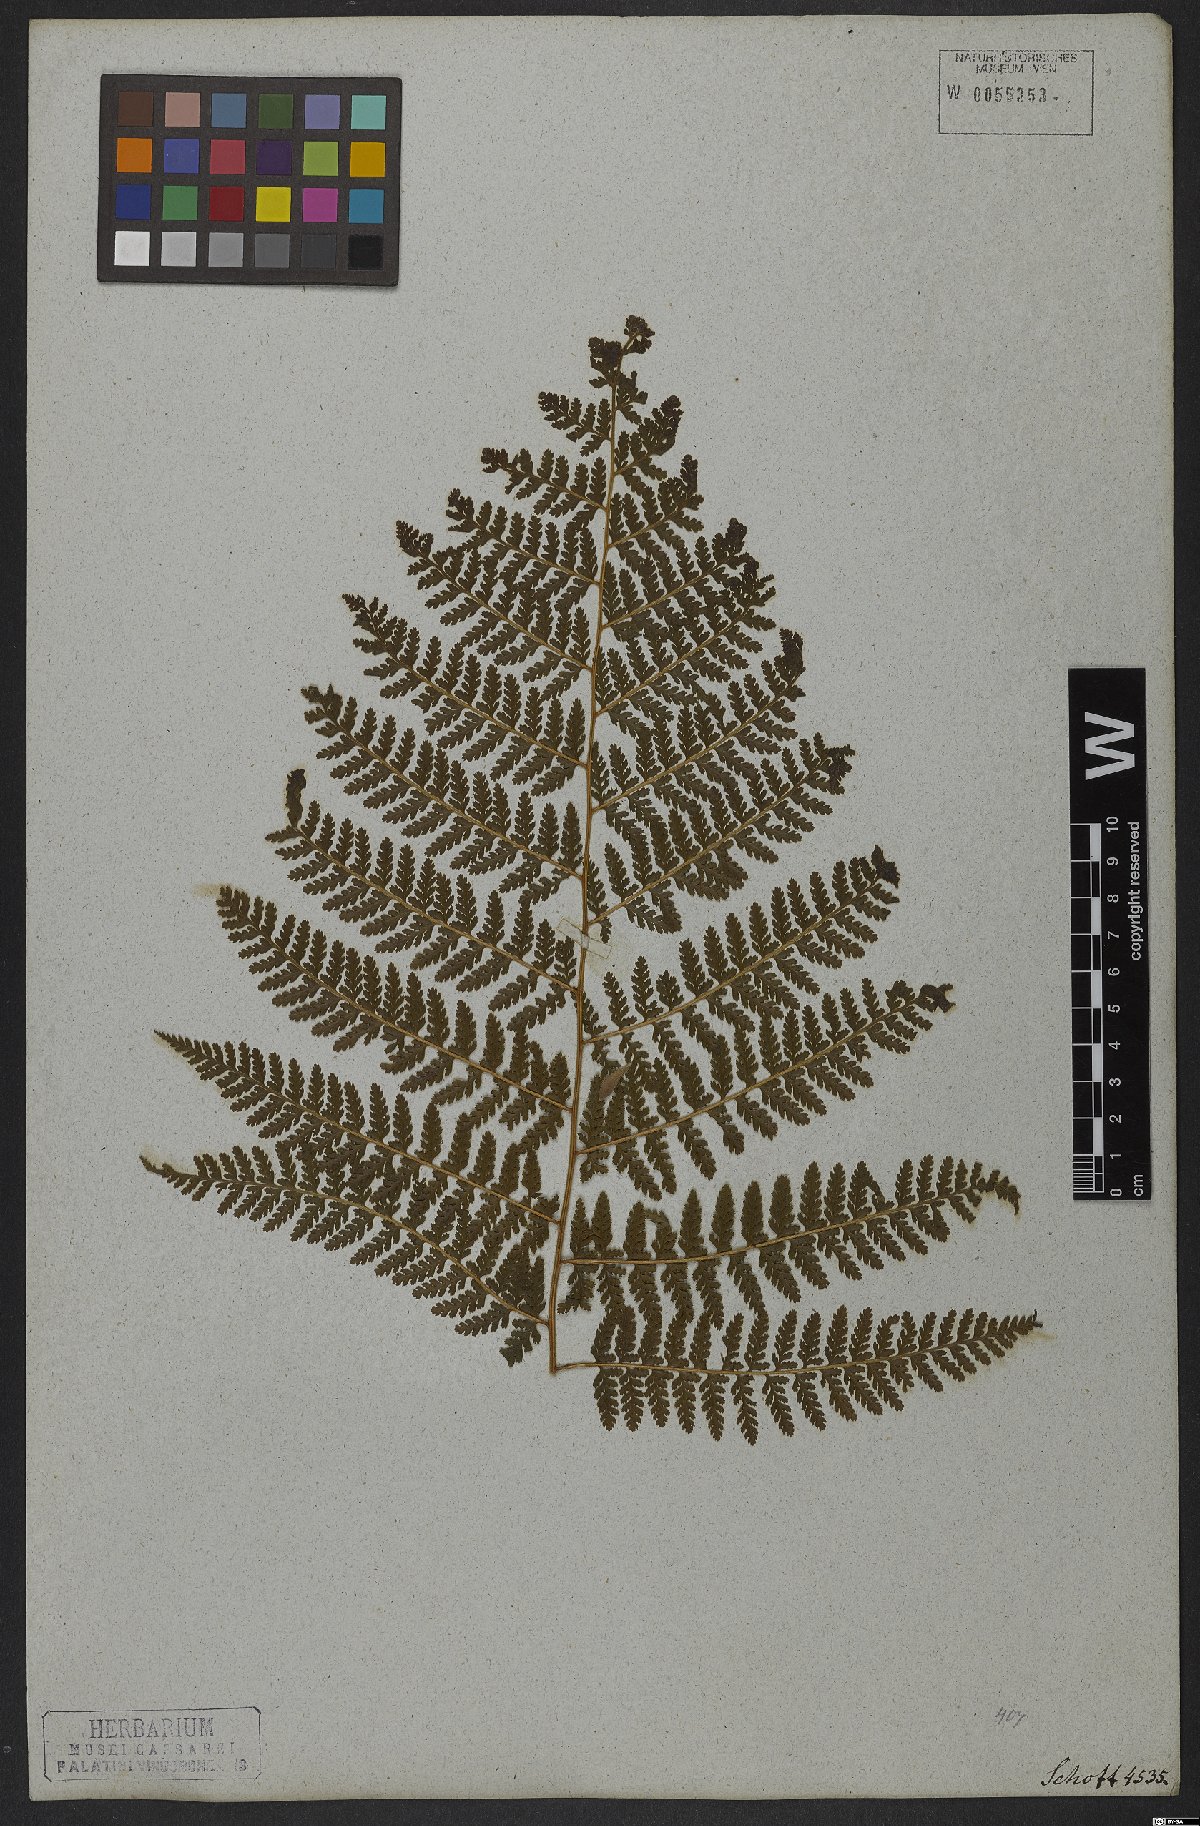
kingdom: Plantae
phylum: Tracheophyta
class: Polypodiopsida
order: Polypodiales
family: Dennstaedtiaceae
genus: Dennstaedtia
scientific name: Dennstaedtia cicutaria
